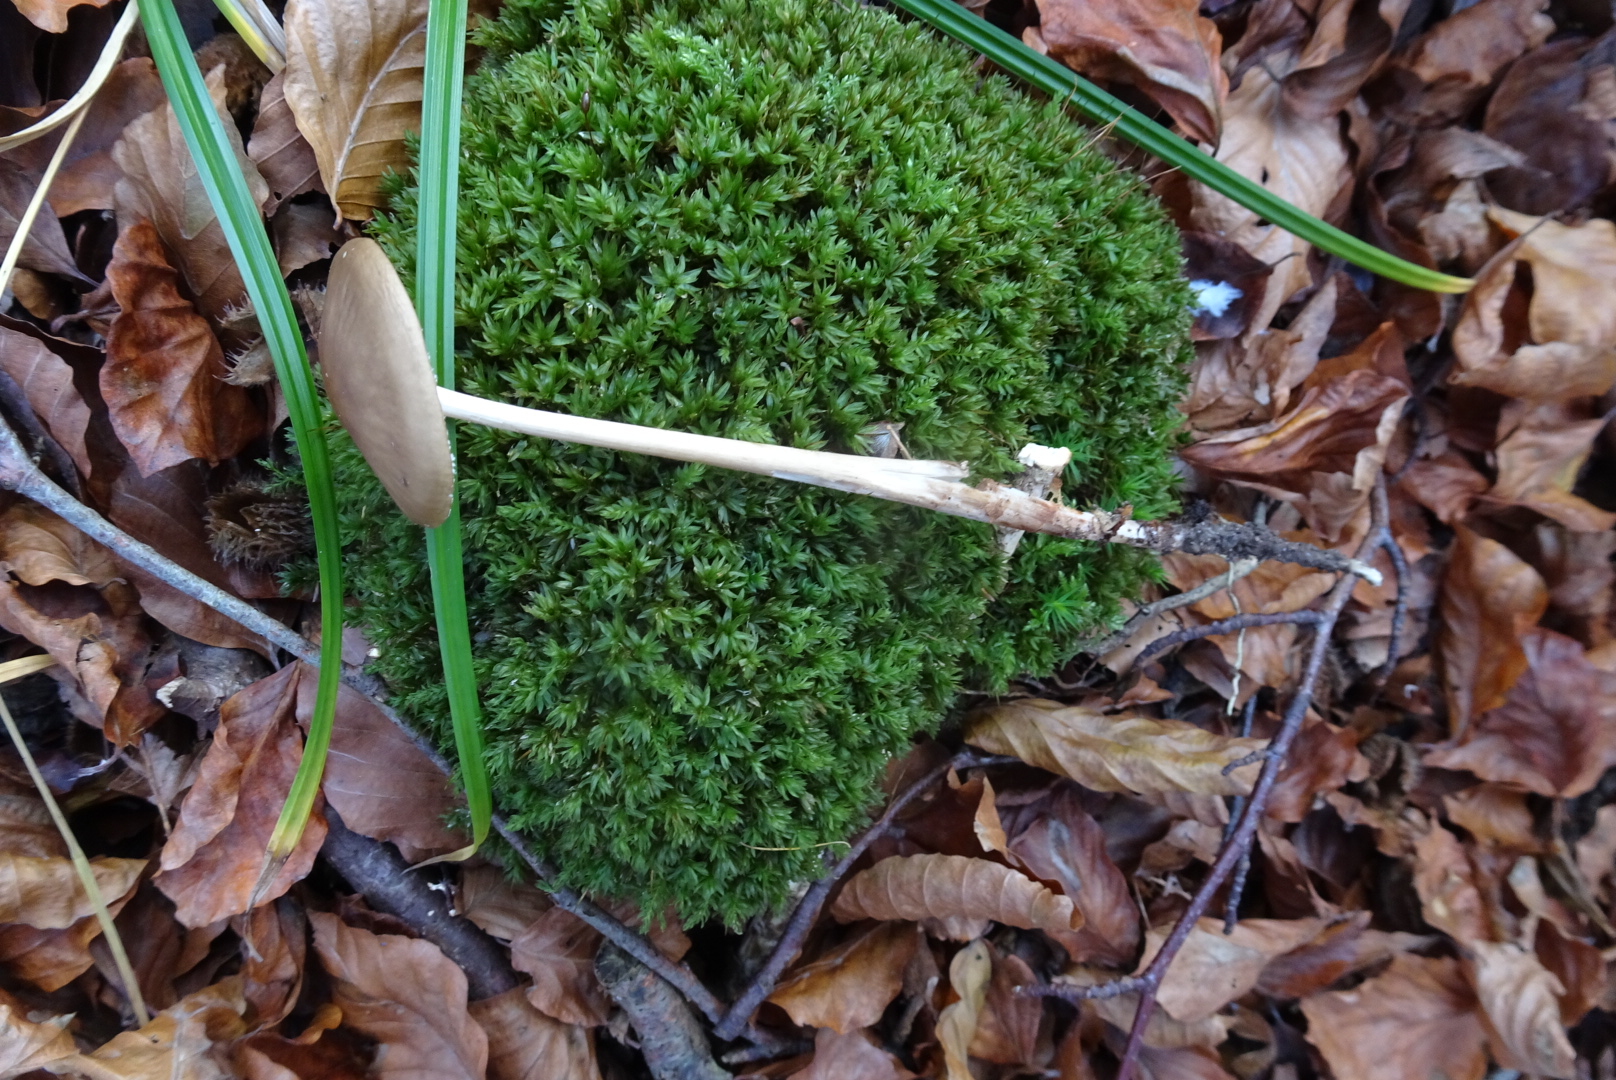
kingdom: Fungi
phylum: Basidiomycota
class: Agaricomycetes
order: Agaricales
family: Physalacriaceae
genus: Hymenopellis
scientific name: Hymenopellis radicata
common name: almindelig pælerodshat
